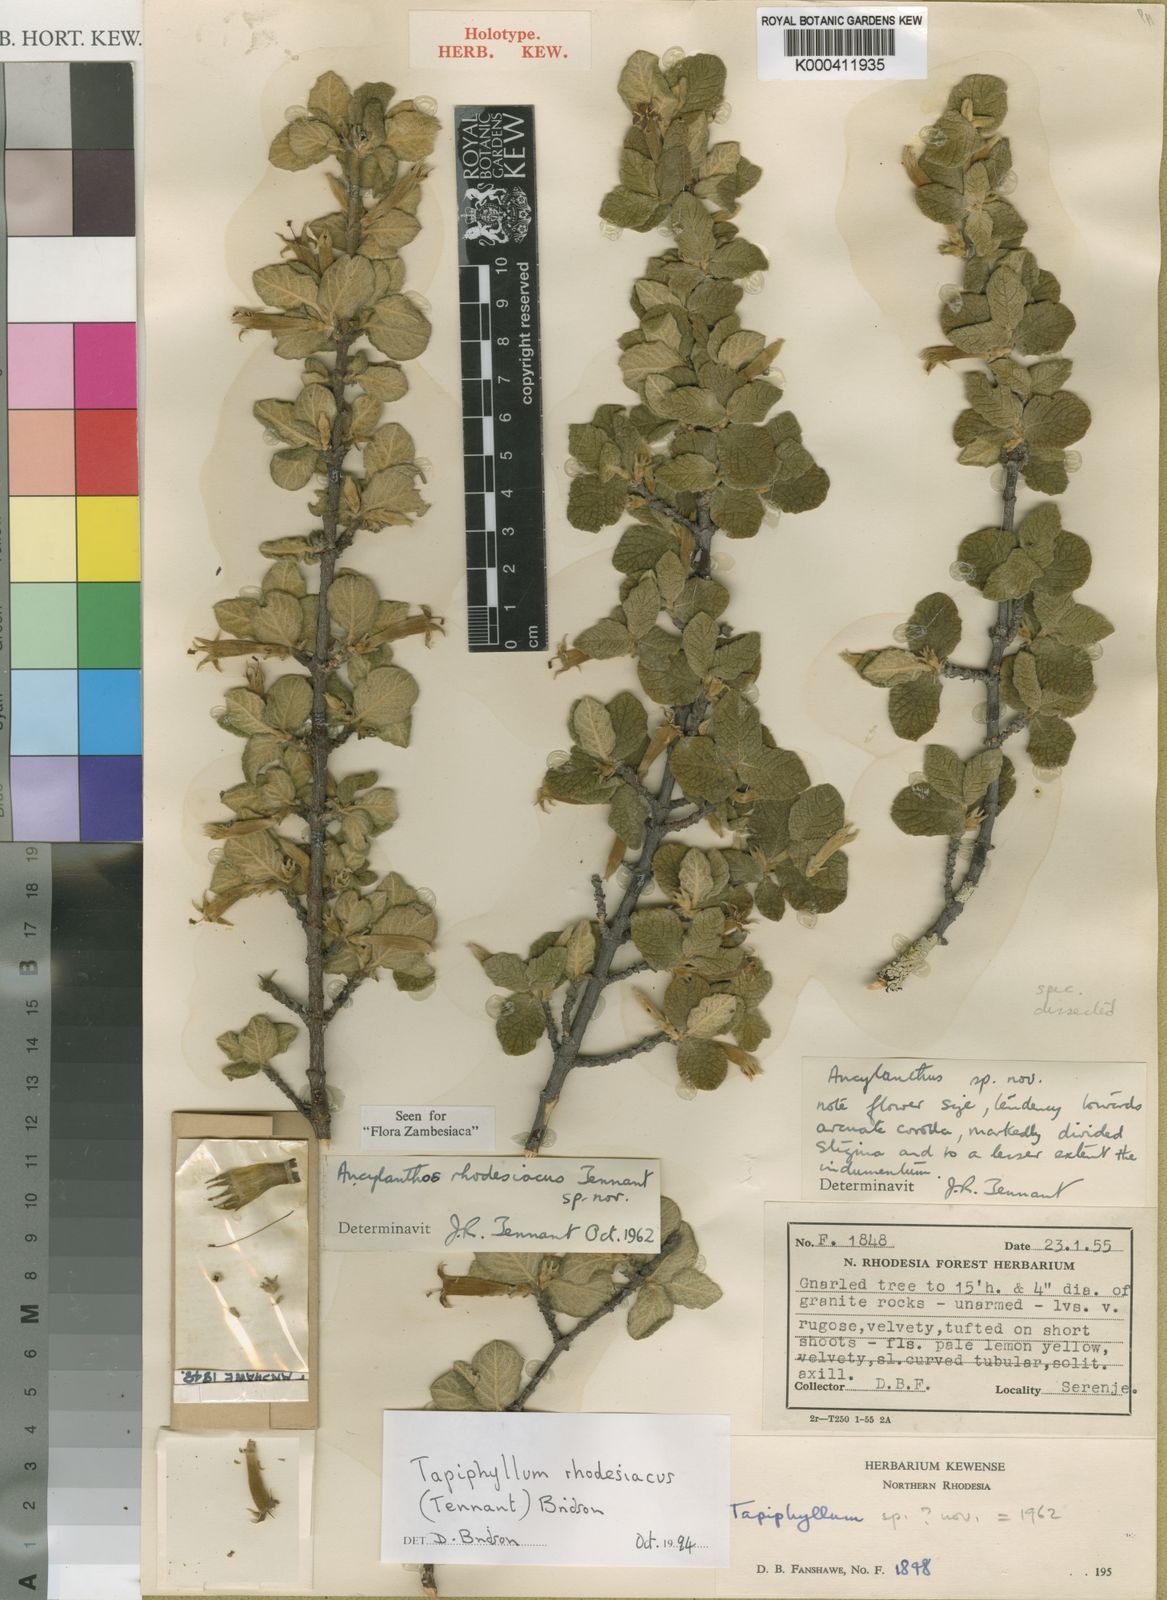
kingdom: Plantae
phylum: Tracheophyta
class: Magnoliopsida
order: Gentianales
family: Rubiaceae
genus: Vangueria
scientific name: Vangueria rhodesiaca
